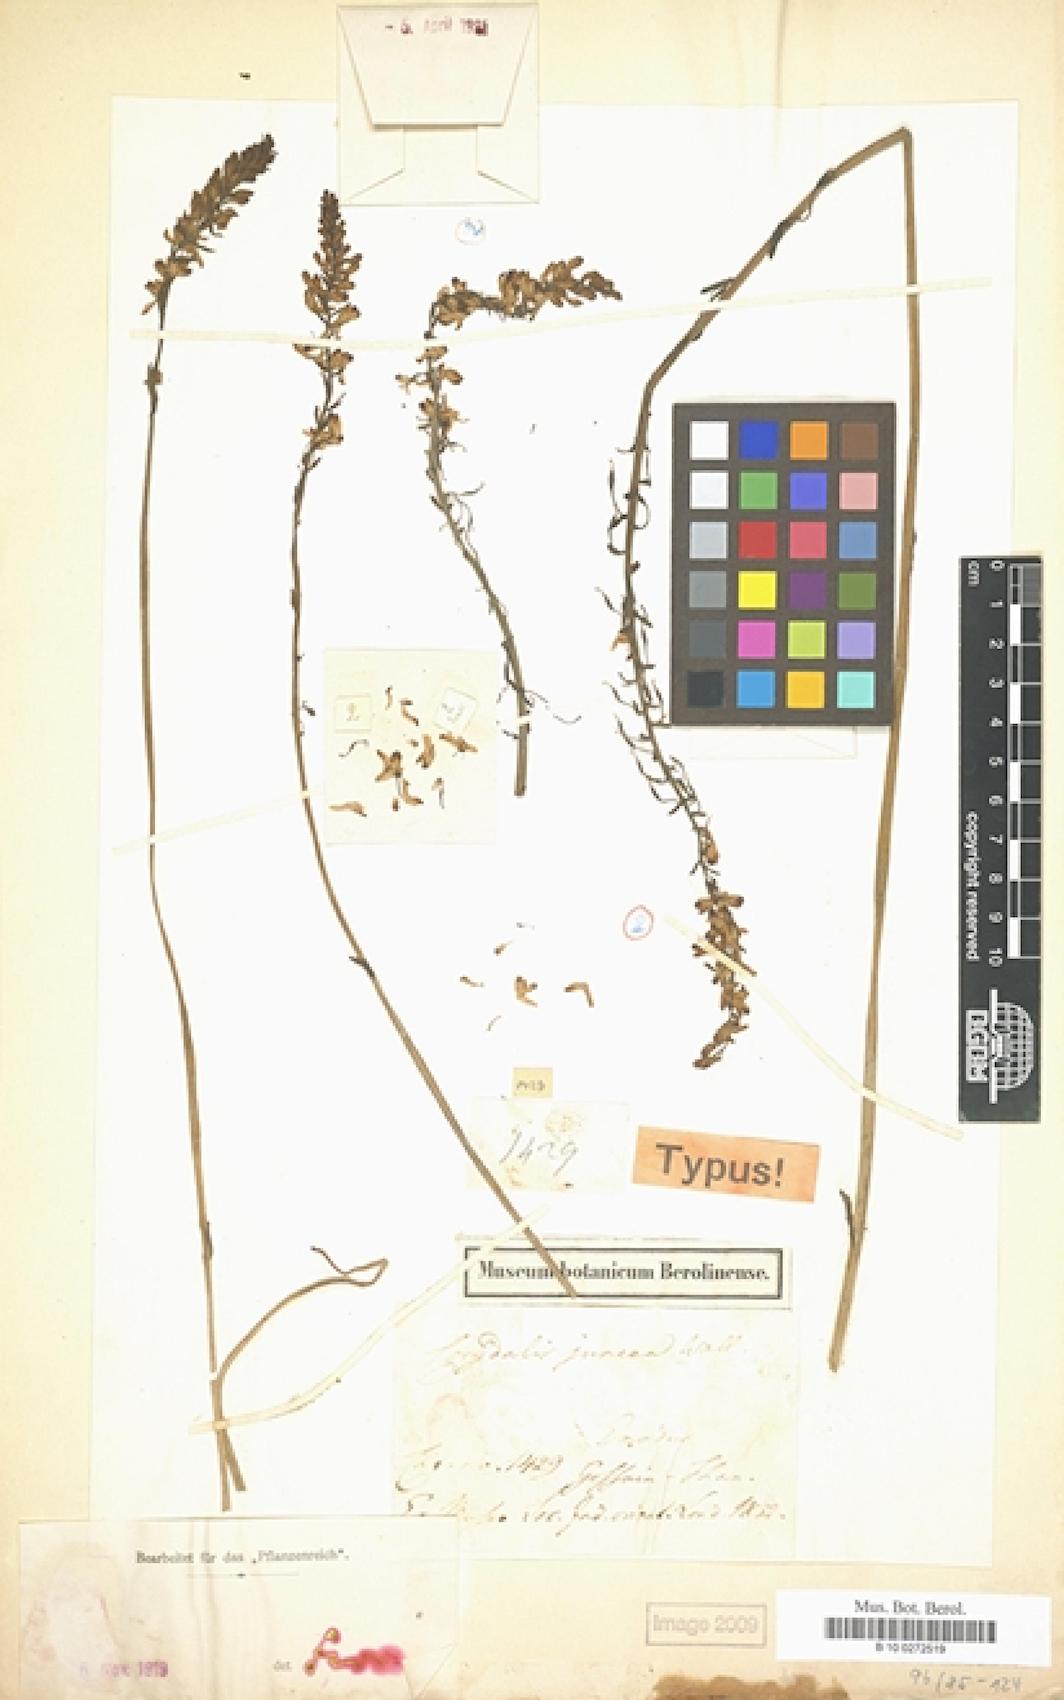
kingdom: Plantae
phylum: Tracheophyta
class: Magnoliopsida
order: Ranunculales
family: Papaveraceae
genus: Corydalis
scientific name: Corydalis juncea
